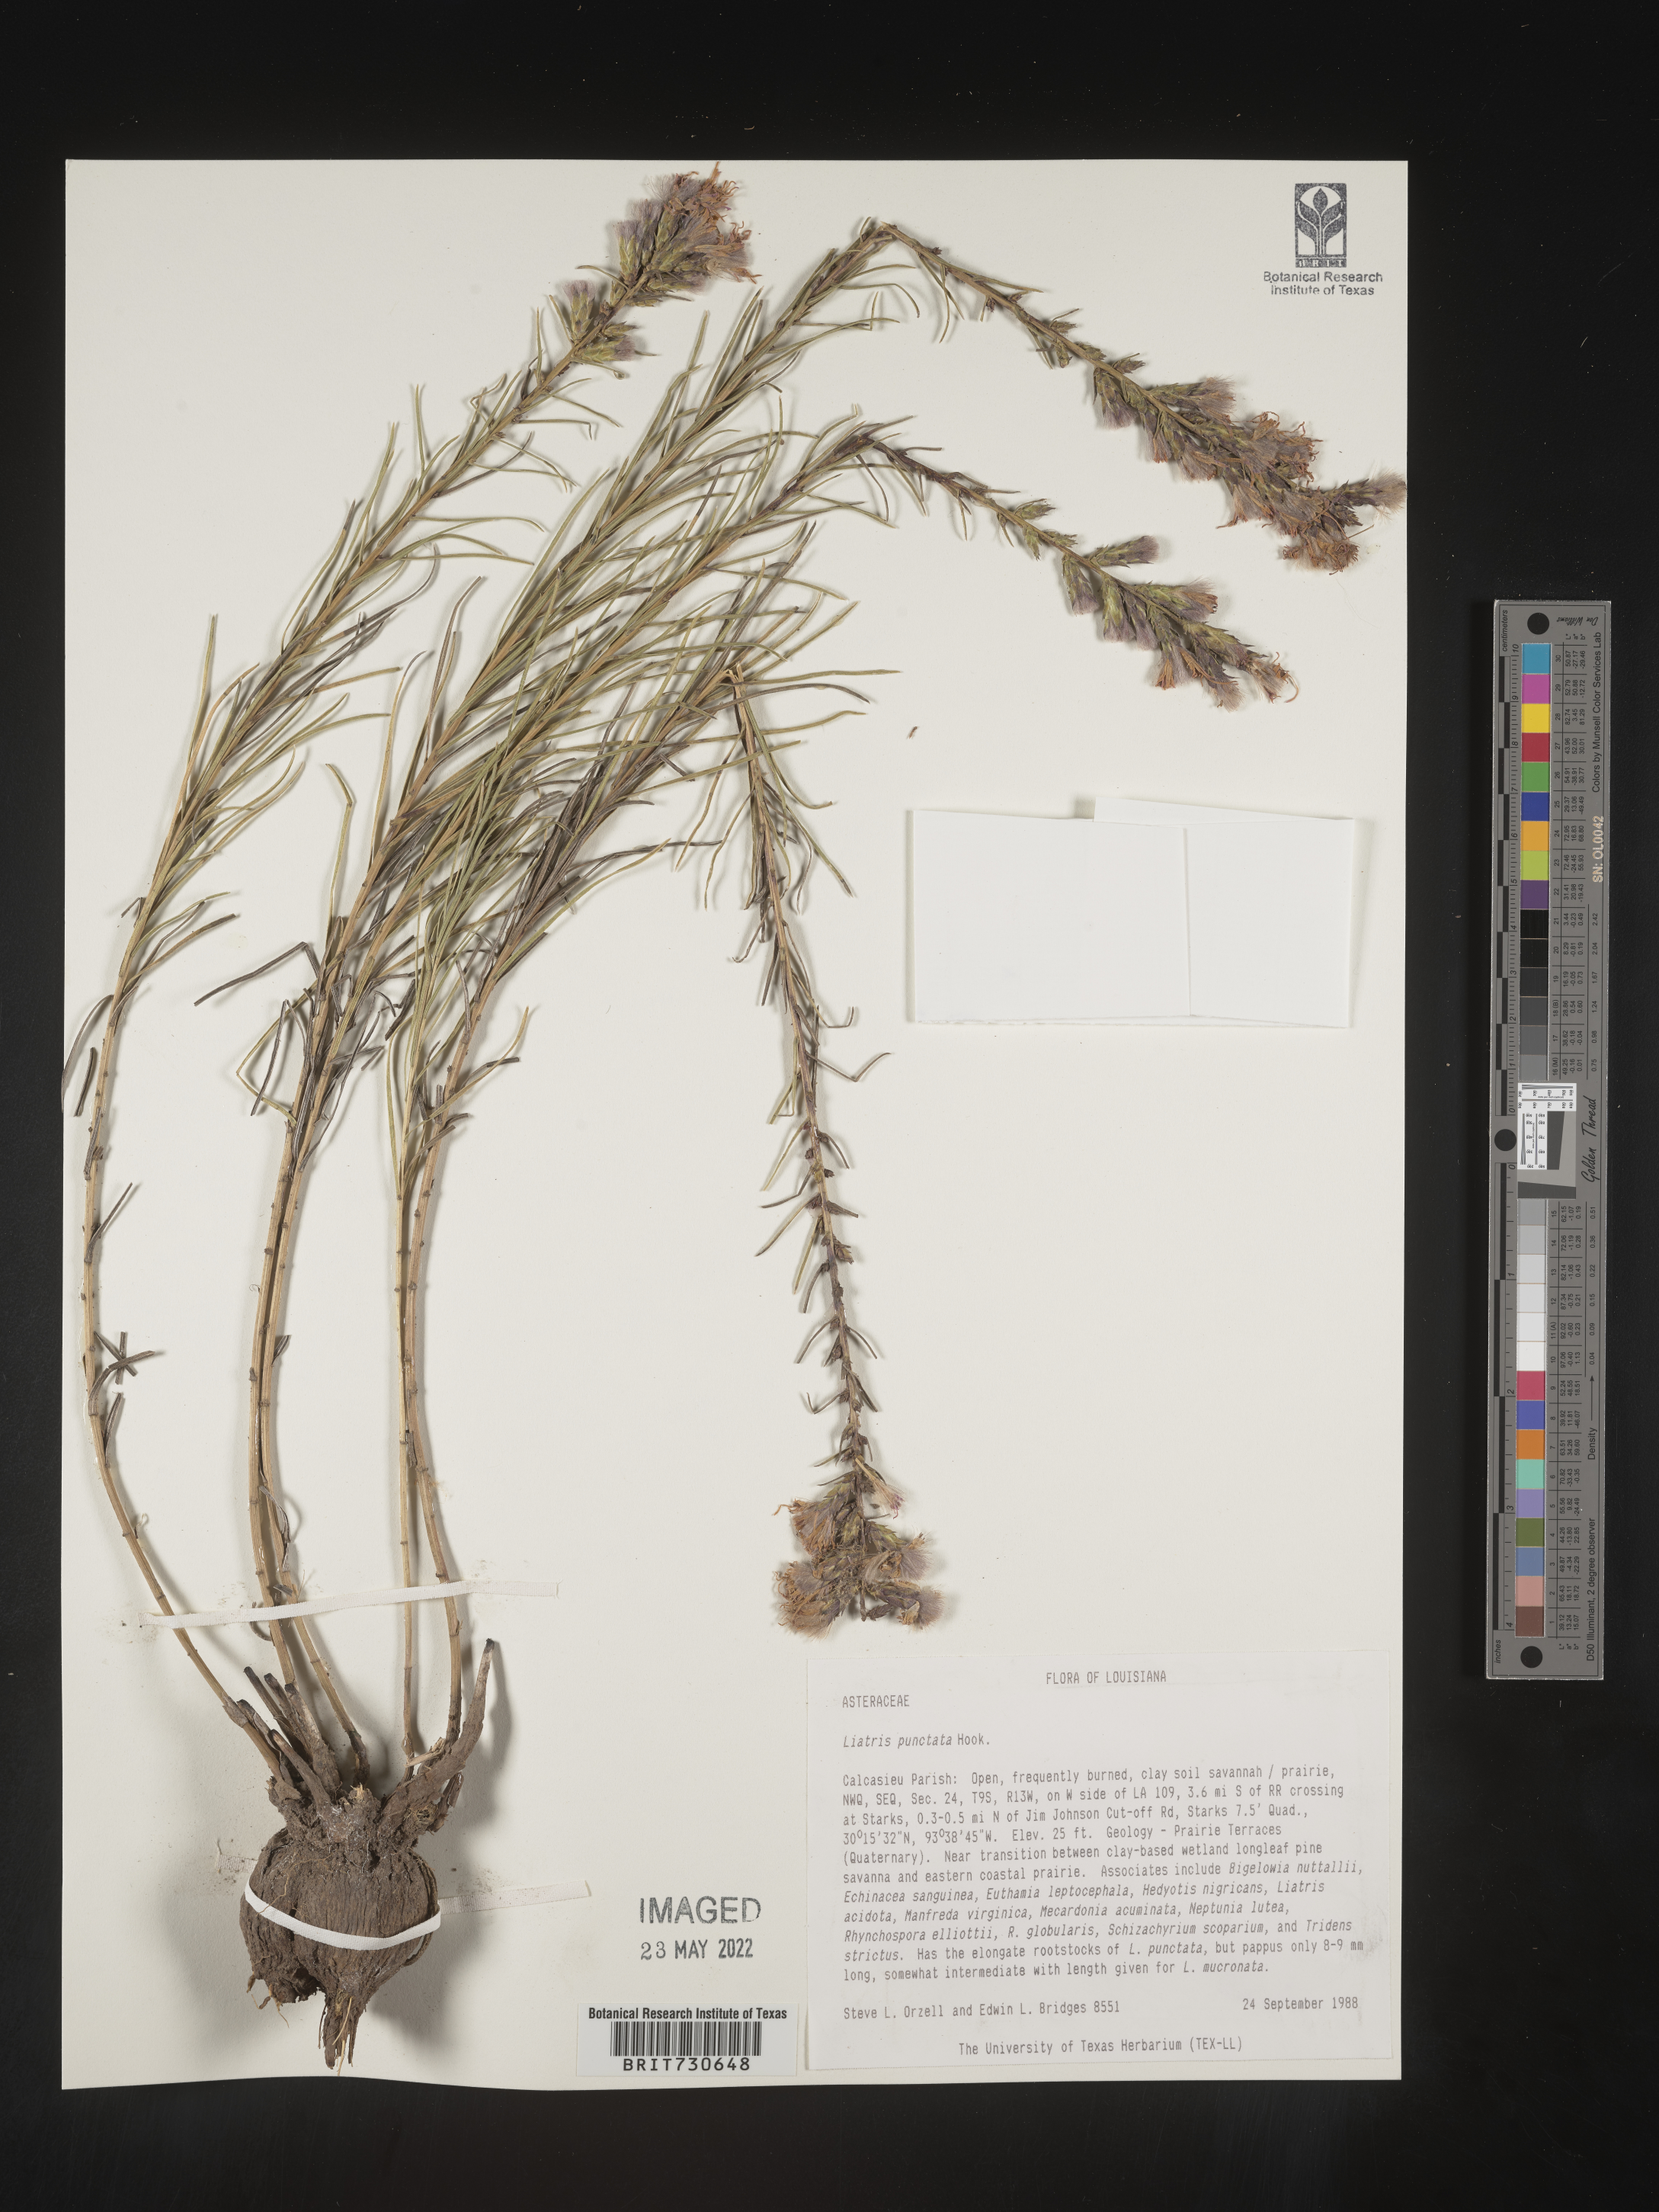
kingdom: Plantae
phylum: Tracheophyta
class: Magnoliopsida
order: Asterales
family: Asteraceae
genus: Liatris
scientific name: Liatris punctata
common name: Dotted gayfeather
